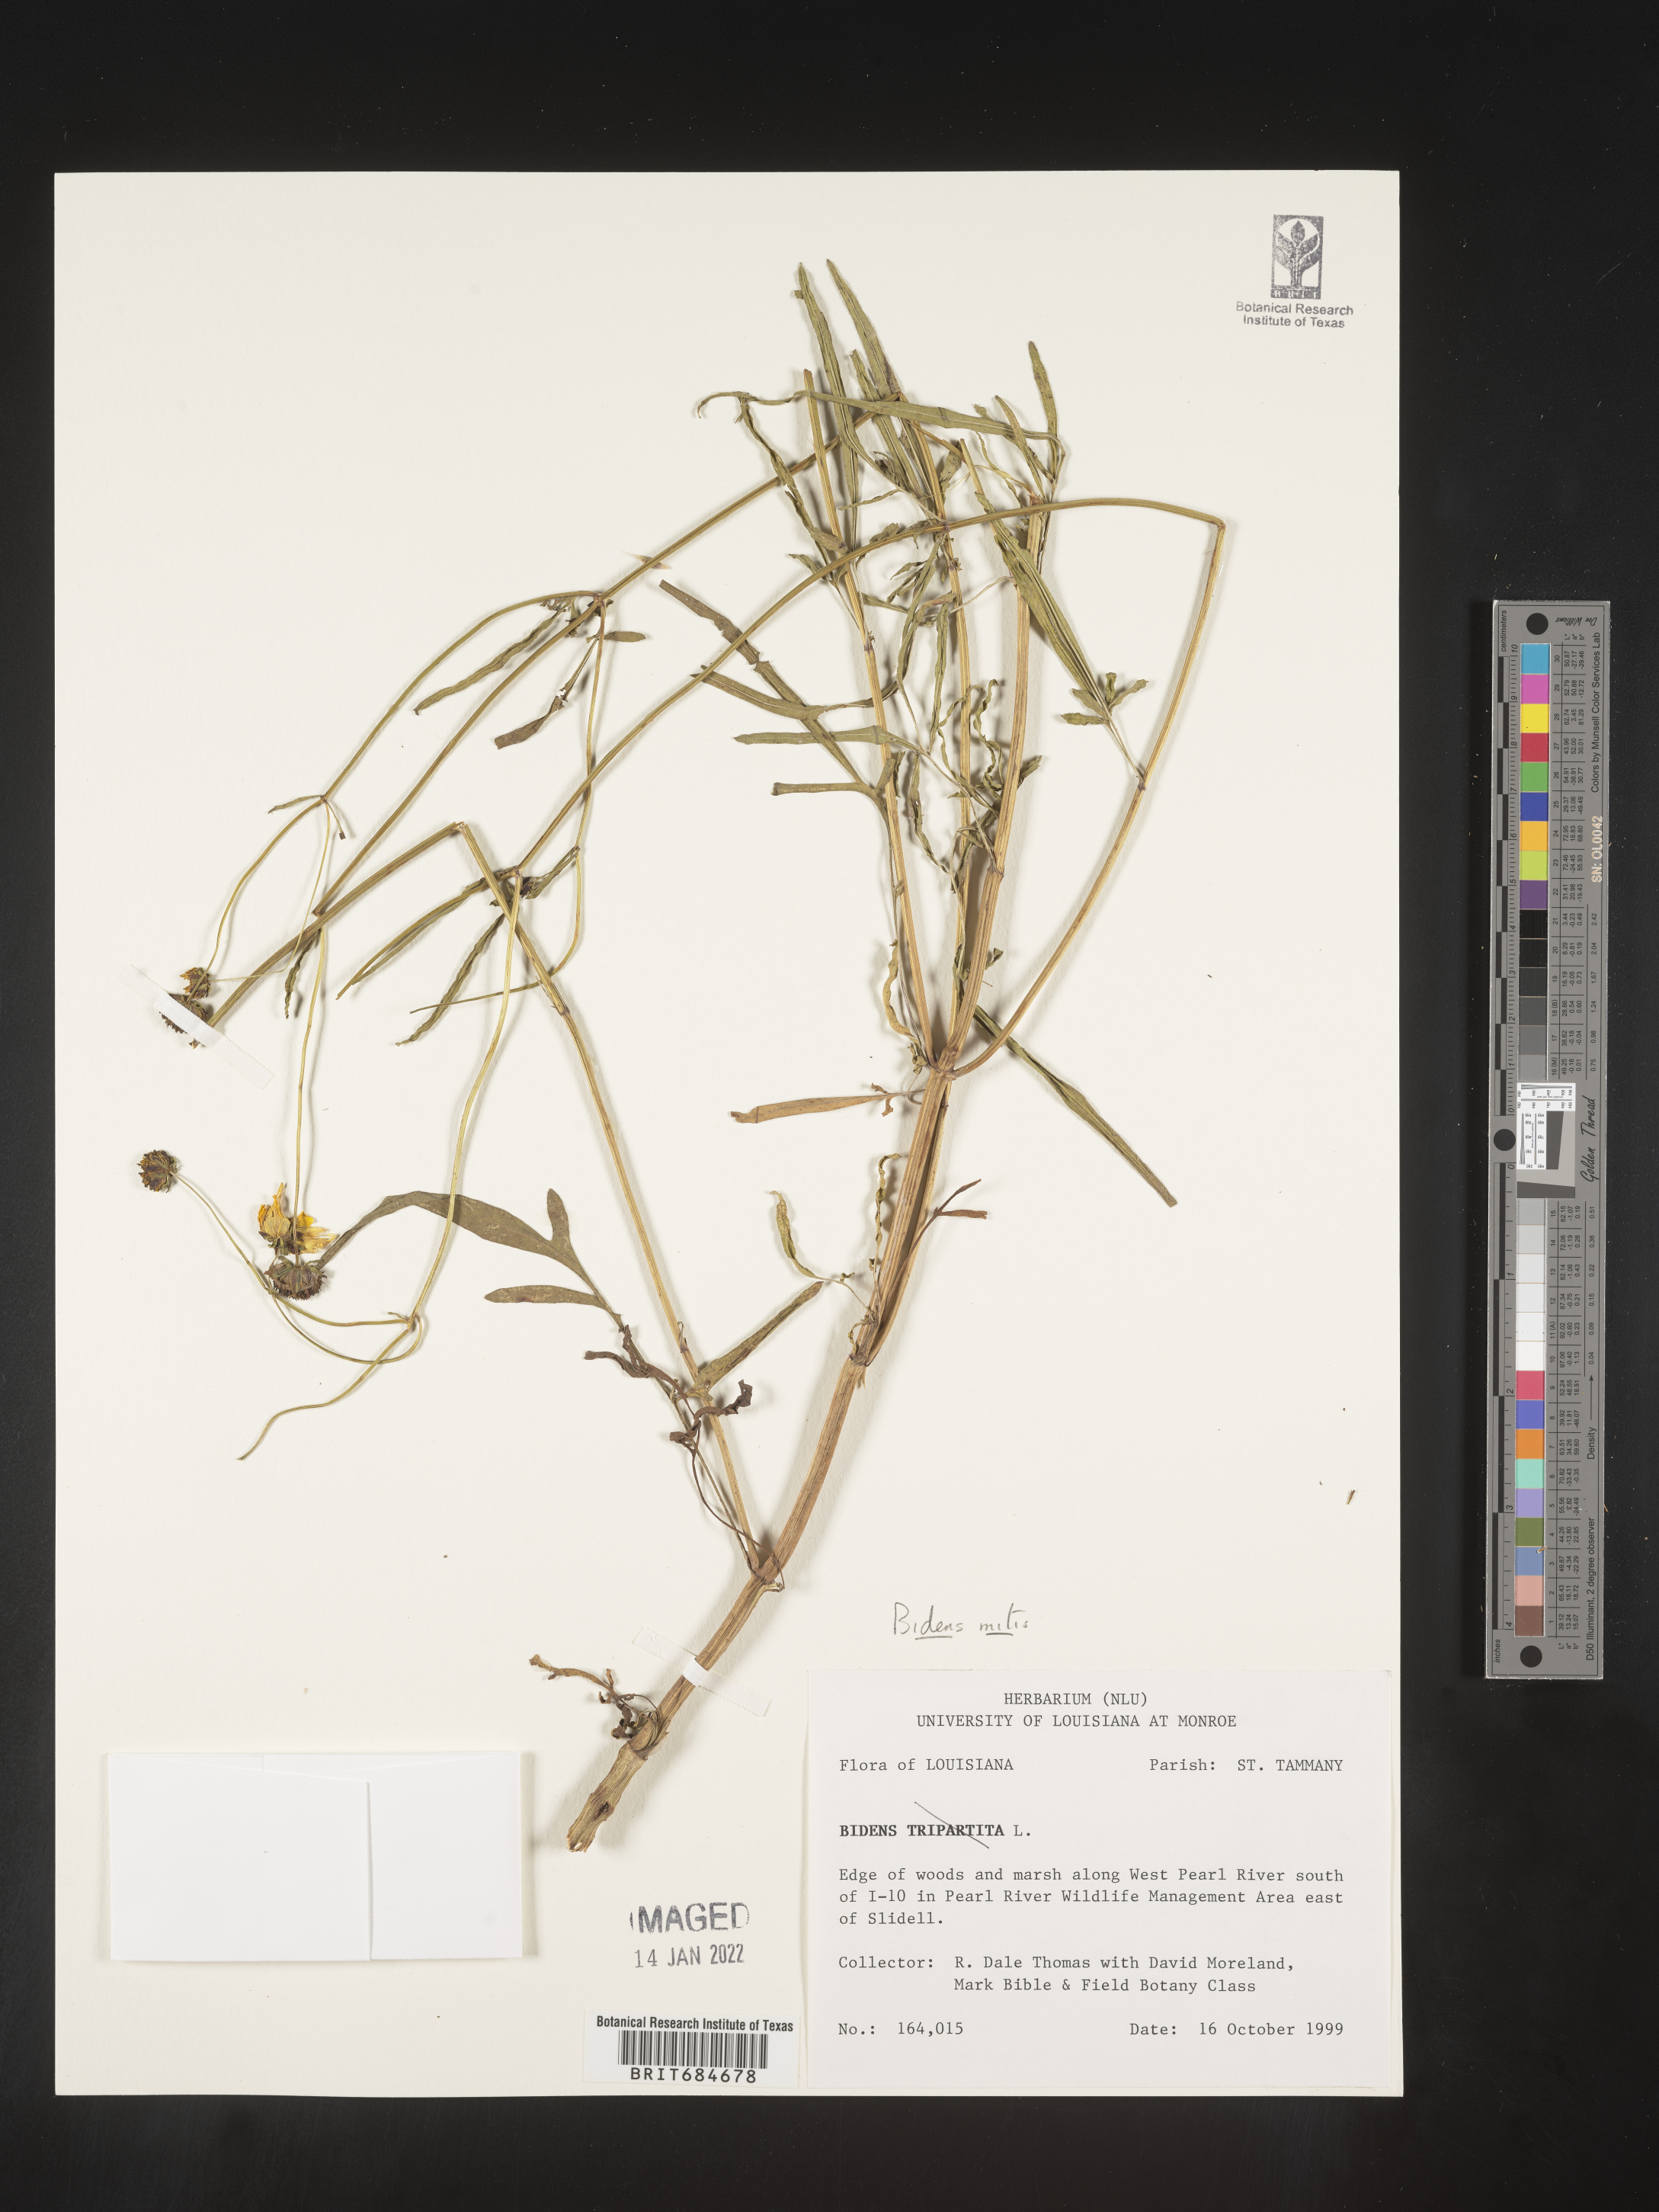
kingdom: Plantae
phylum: Tracheophyta
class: Magnoliopsida
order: Asterales
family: Asteraceae
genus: Bidens
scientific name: Bidens mitis
